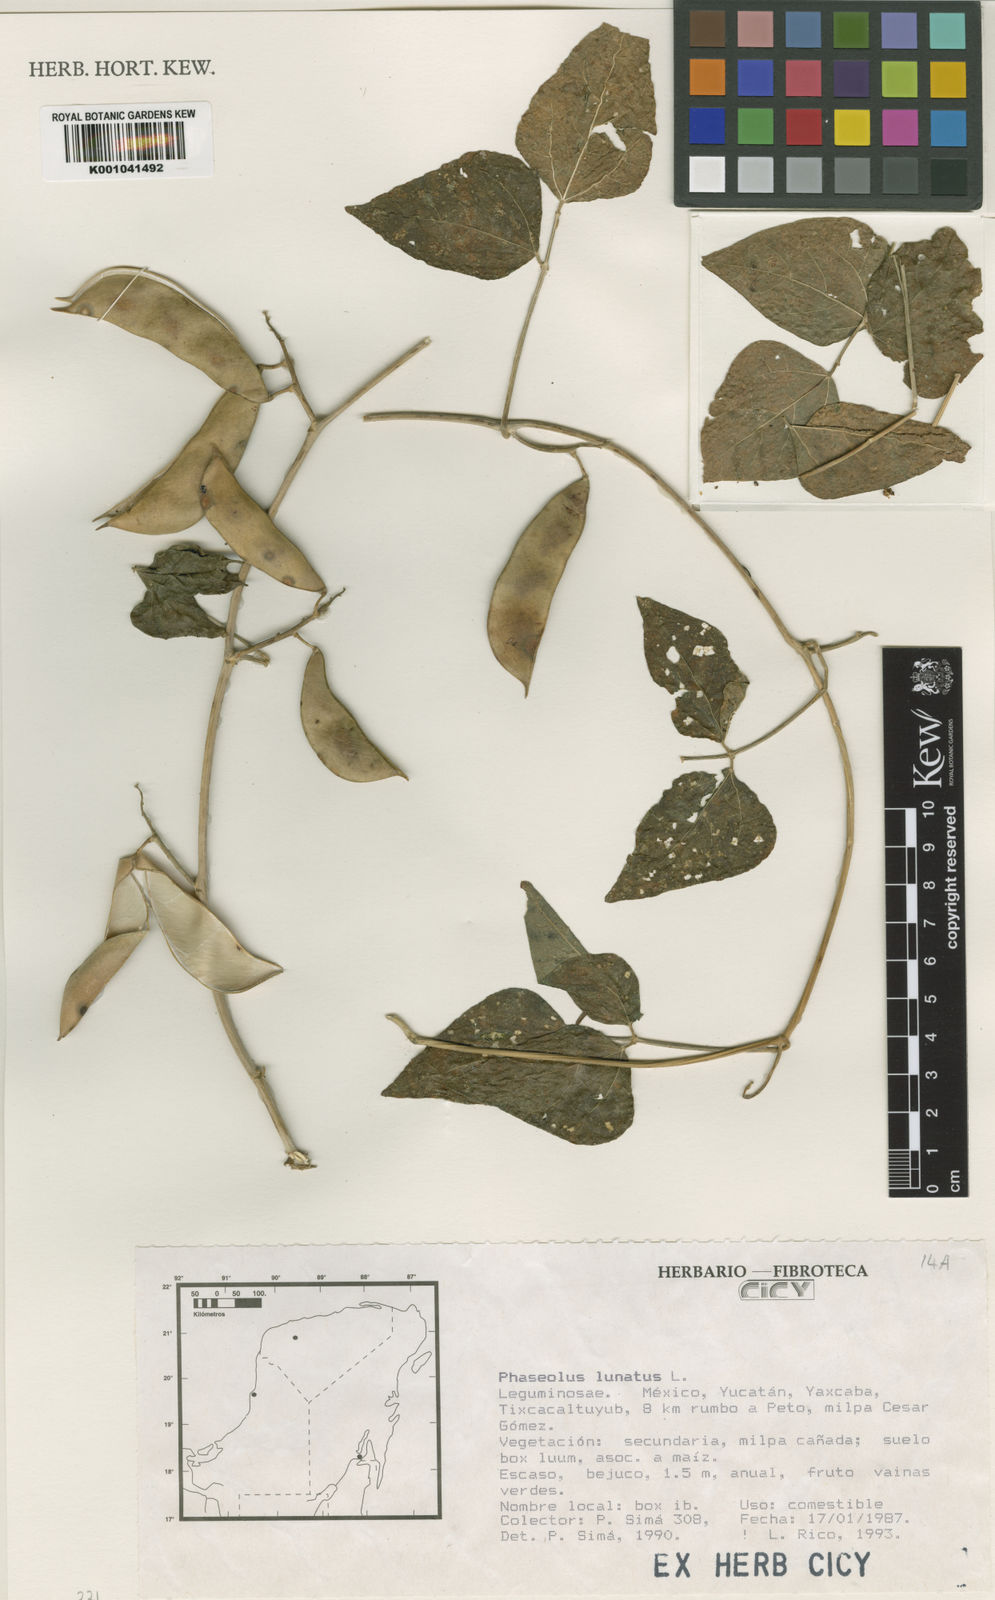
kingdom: Plantae
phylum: Tracheophyta
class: Magnoliopsida
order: Fabales
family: Fabaceae
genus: Phaseolus
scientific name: Phaseolus lunatus
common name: Sieva bean
